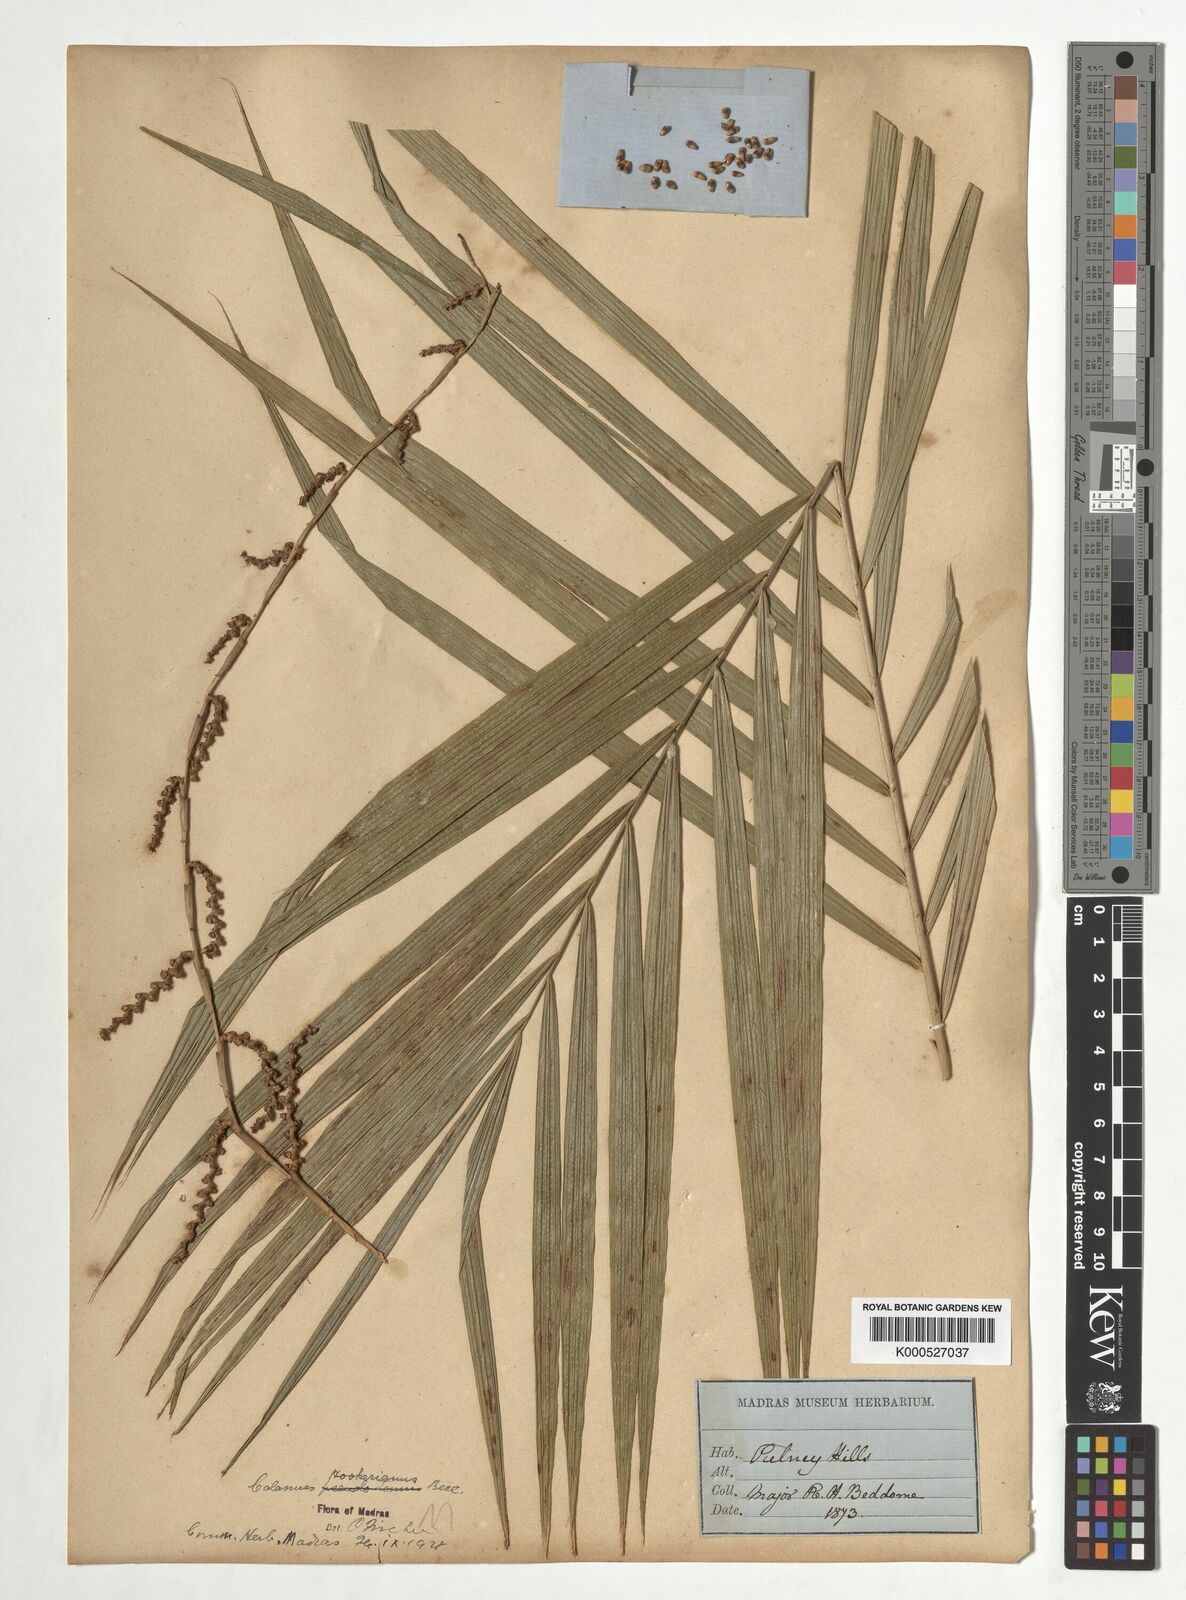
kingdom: Plantae
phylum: Tracheophyta
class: Liliopsida
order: Arecales
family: Arecaceae
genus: Calamus
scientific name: Calamus hookerianus
